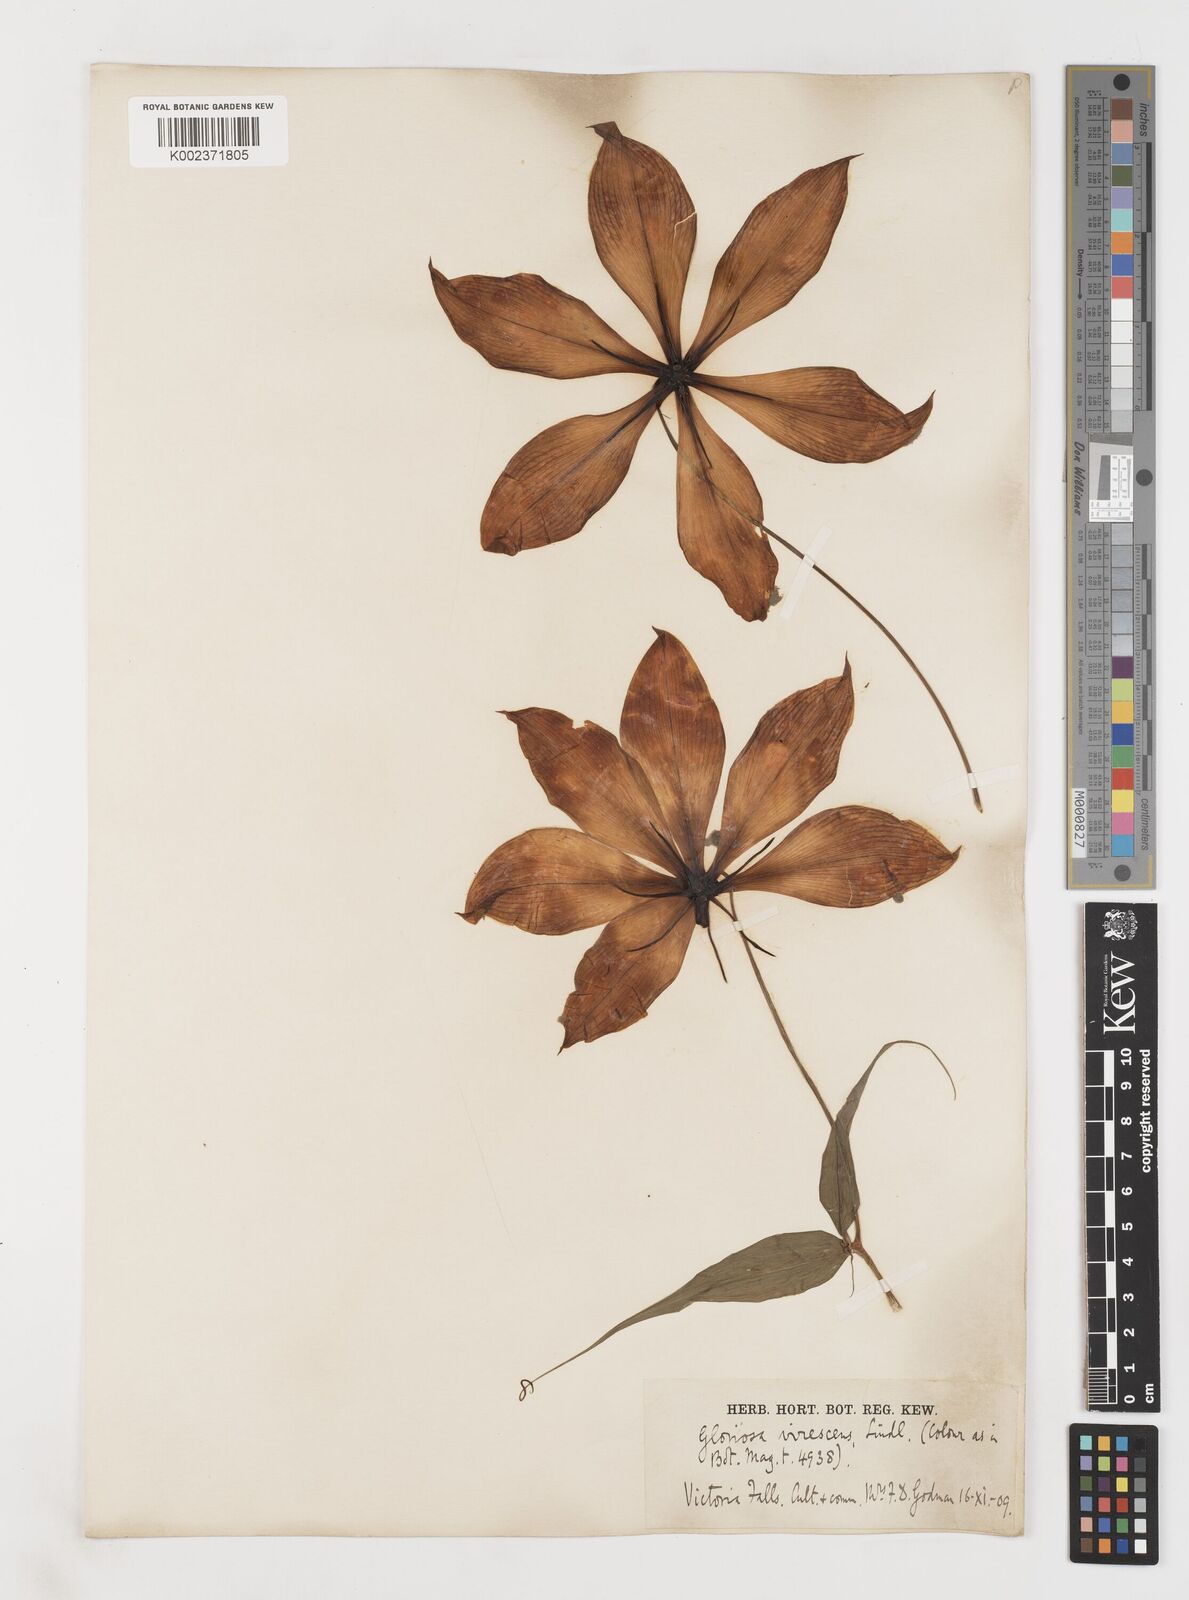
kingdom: Plantae
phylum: Tracheophyta
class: Liliopsida
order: Liliales
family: Colchicaceae
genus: Gloriosa
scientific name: Gloriosa simplex
